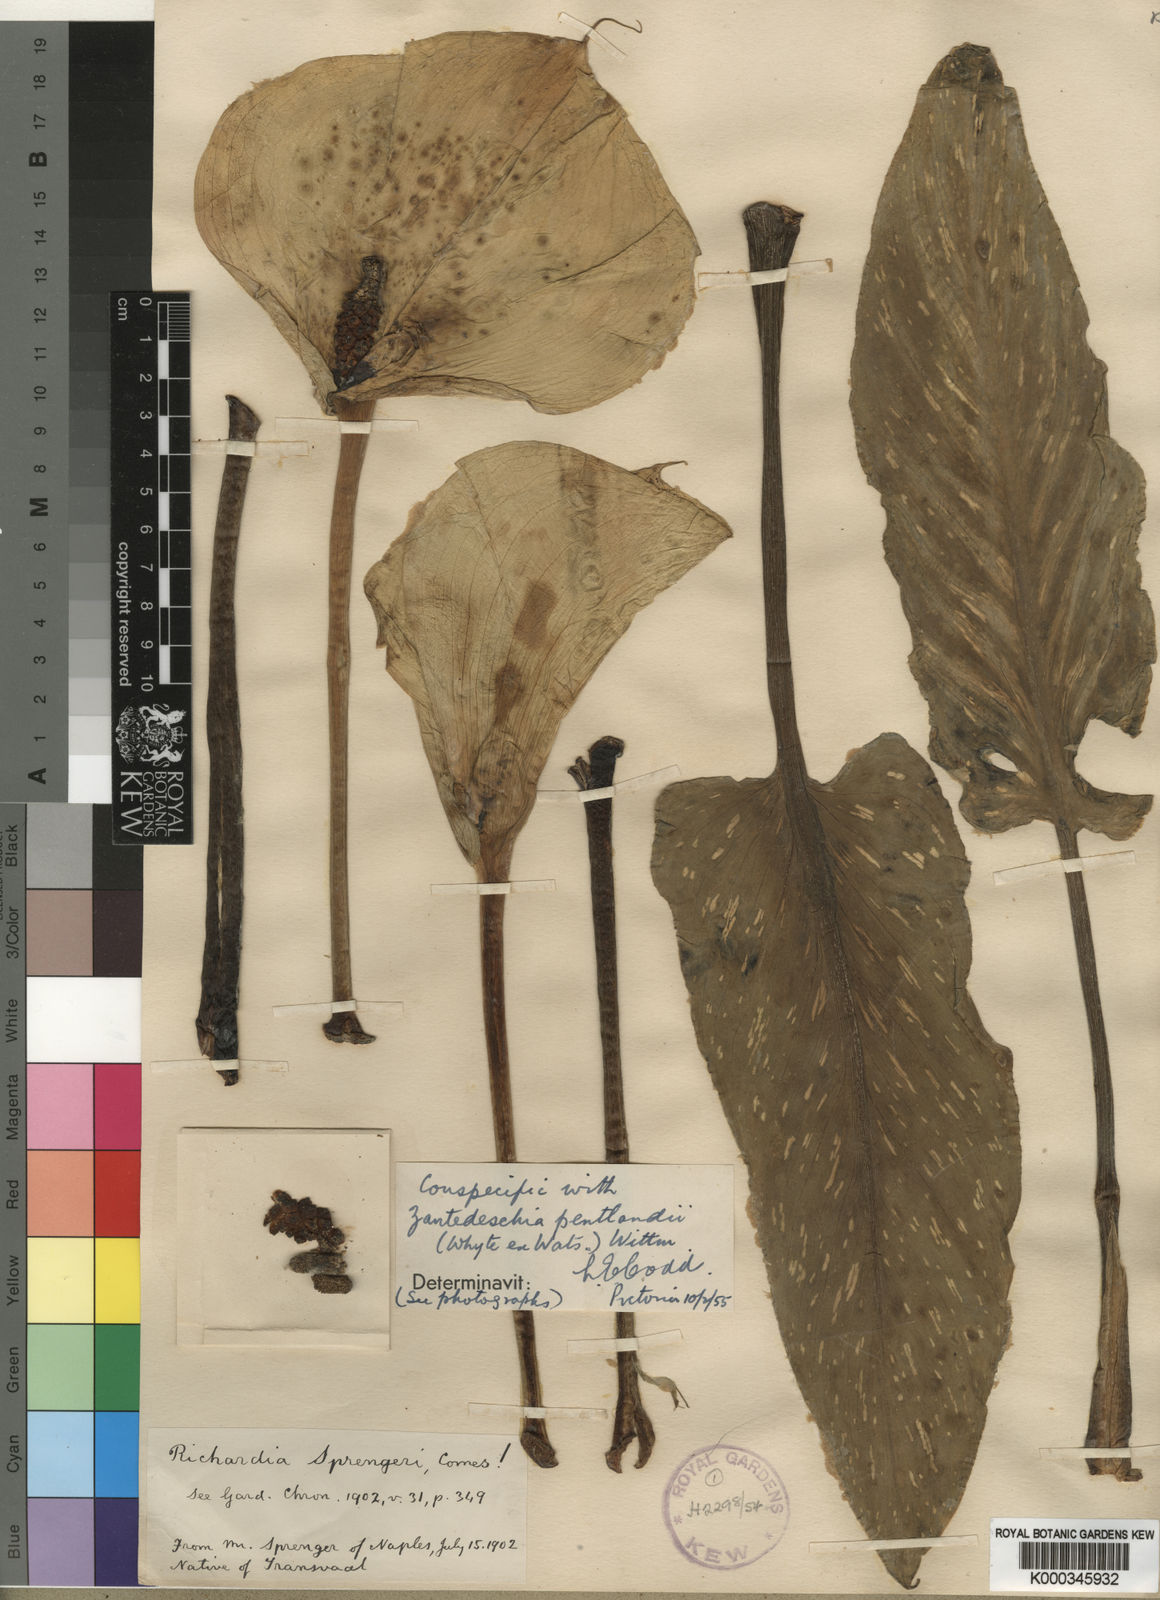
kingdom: Plantae
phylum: Tracheophyta
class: Liliopsida
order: Alismatales
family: Araceae
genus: Zantedeschia
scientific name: Zantedeschia pentlandii
